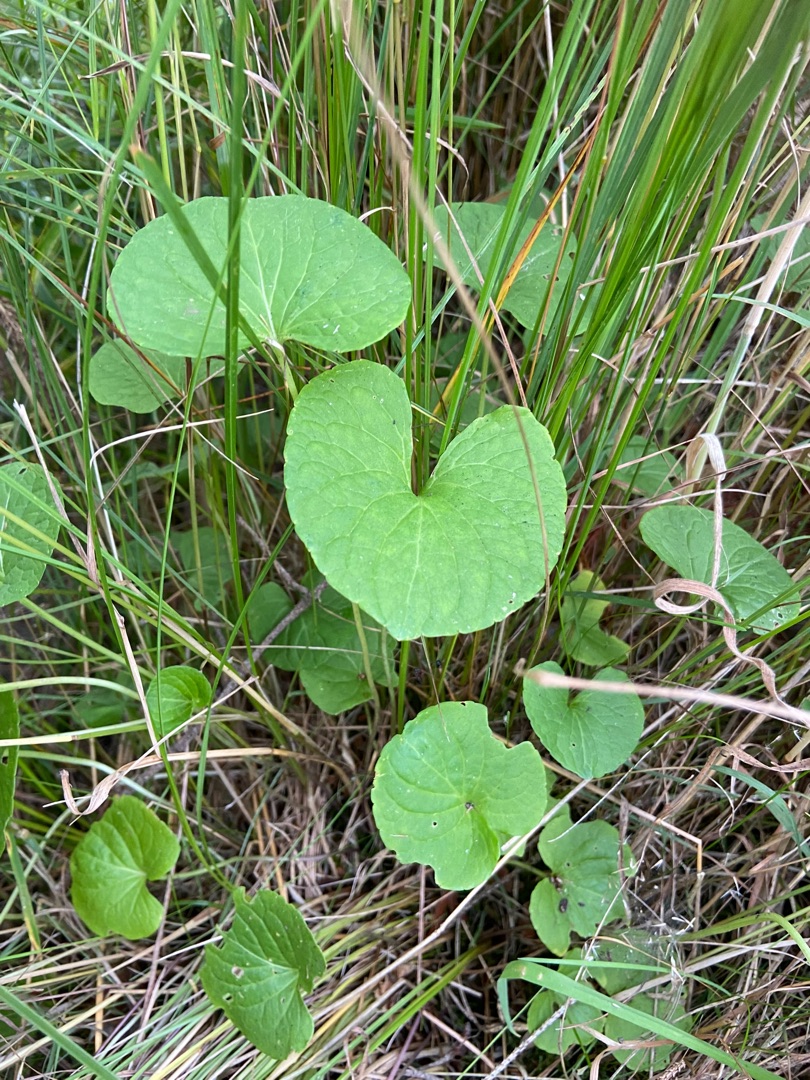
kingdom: Plantae
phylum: Tracheophyta
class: Magnoliopsida
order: Malpighiales
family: Violaceae
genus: Viola
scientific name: Viola palustris
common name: Eng-viol
